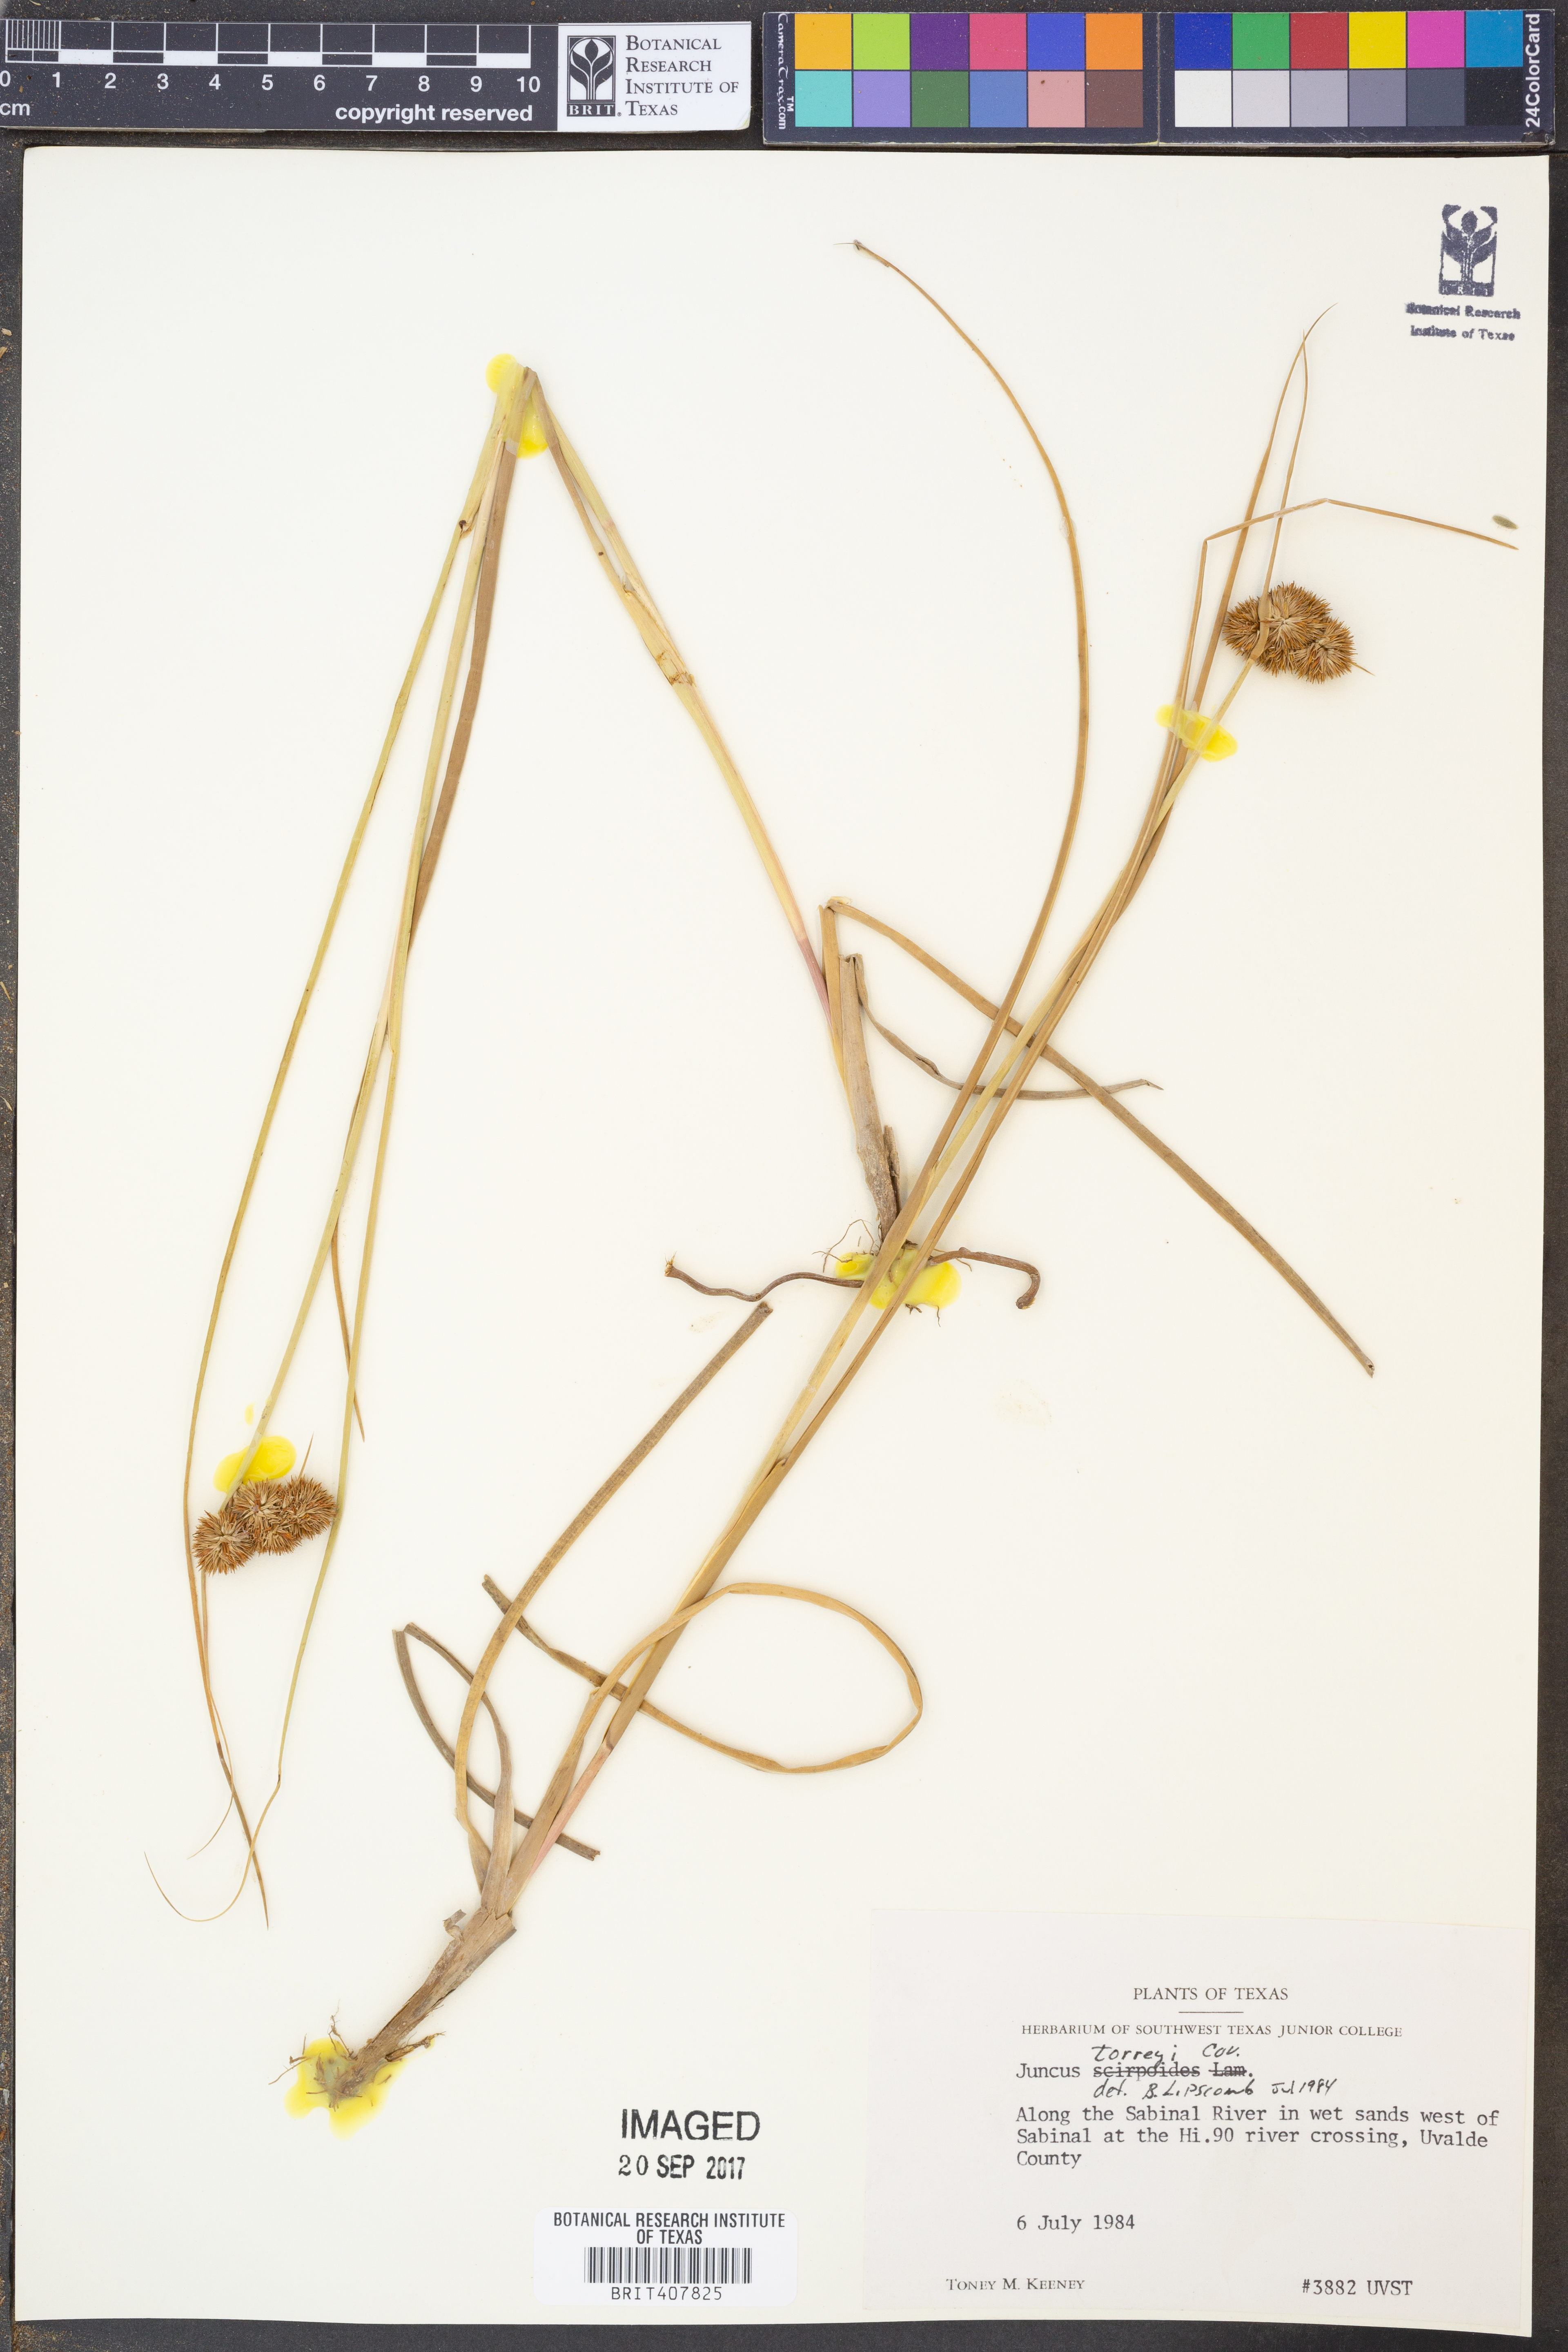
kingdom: Plantae
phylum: Tracheophyta
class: Liliopsida
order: Poales
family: Juncaceae
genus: Juncus
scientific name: Juncus torreyi
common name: Torrey's rush
